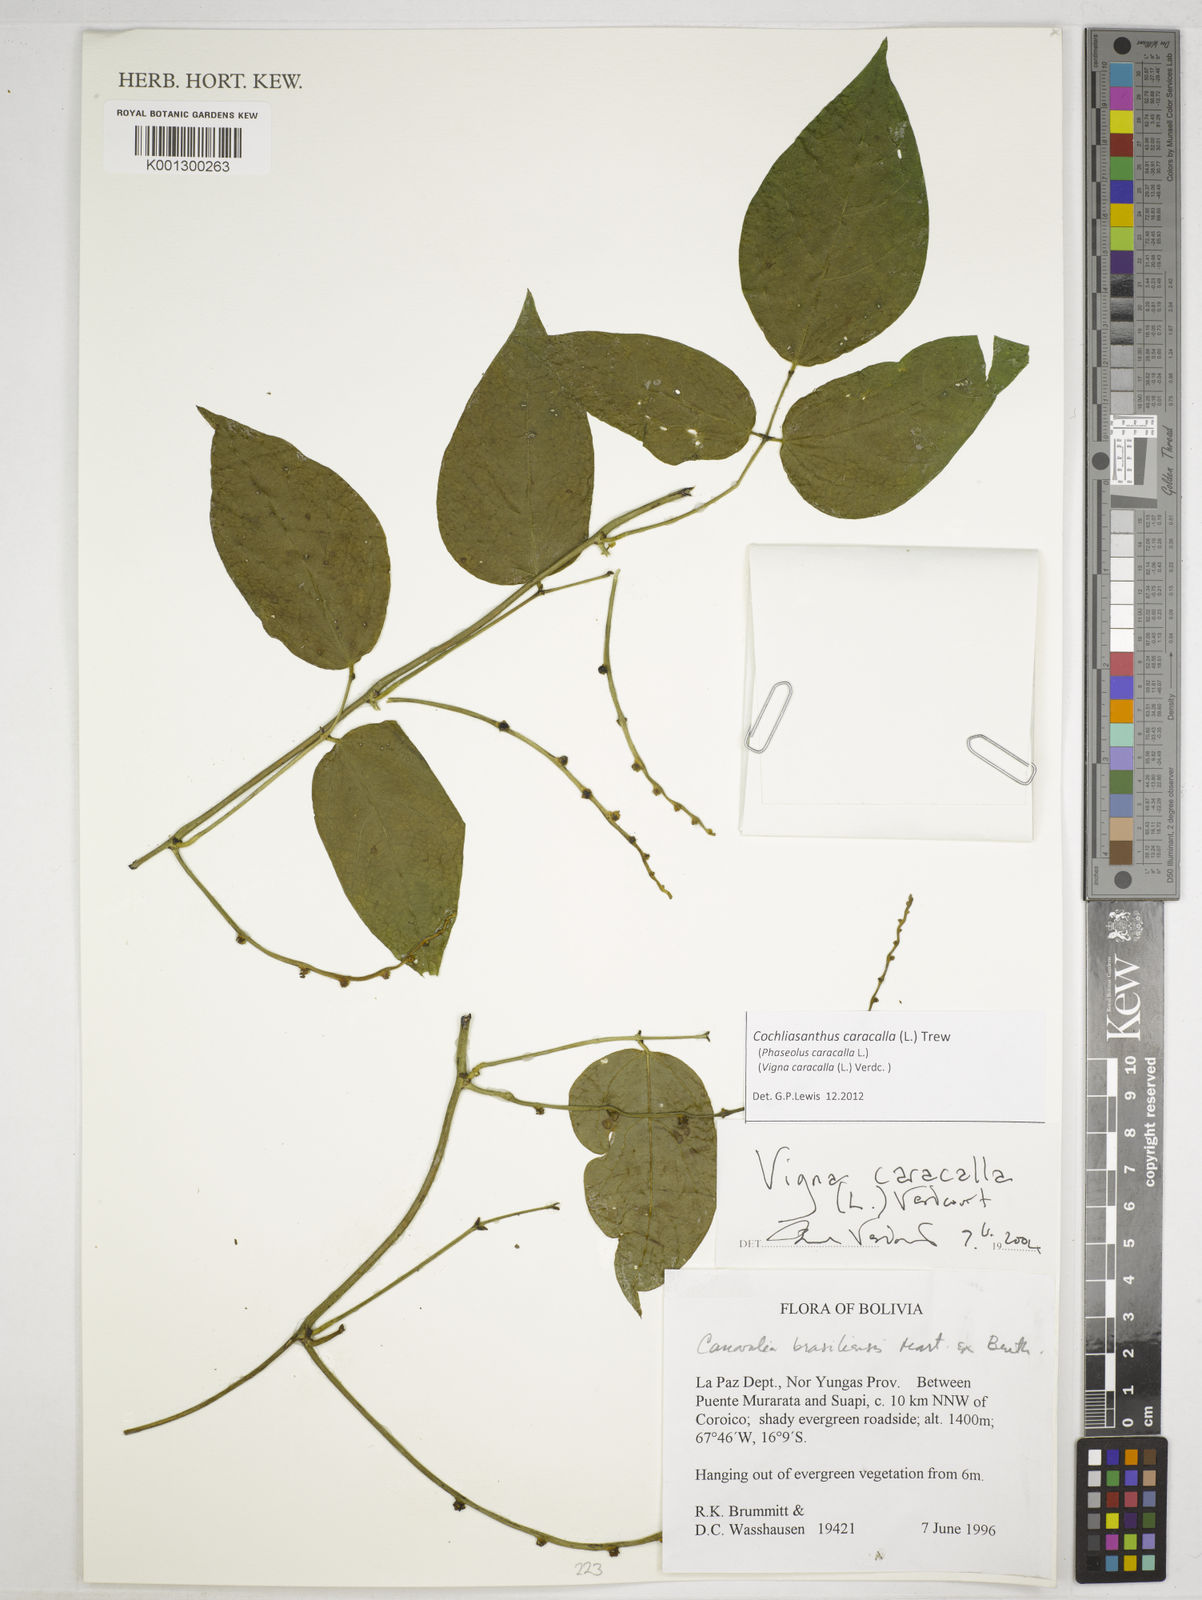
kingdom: Plantae
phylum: Tracheophyta
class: Magnoliopsida
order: Fabales
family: Fabaceae
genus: Cochliasanthus
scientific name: Cochliasanthus caracalla
